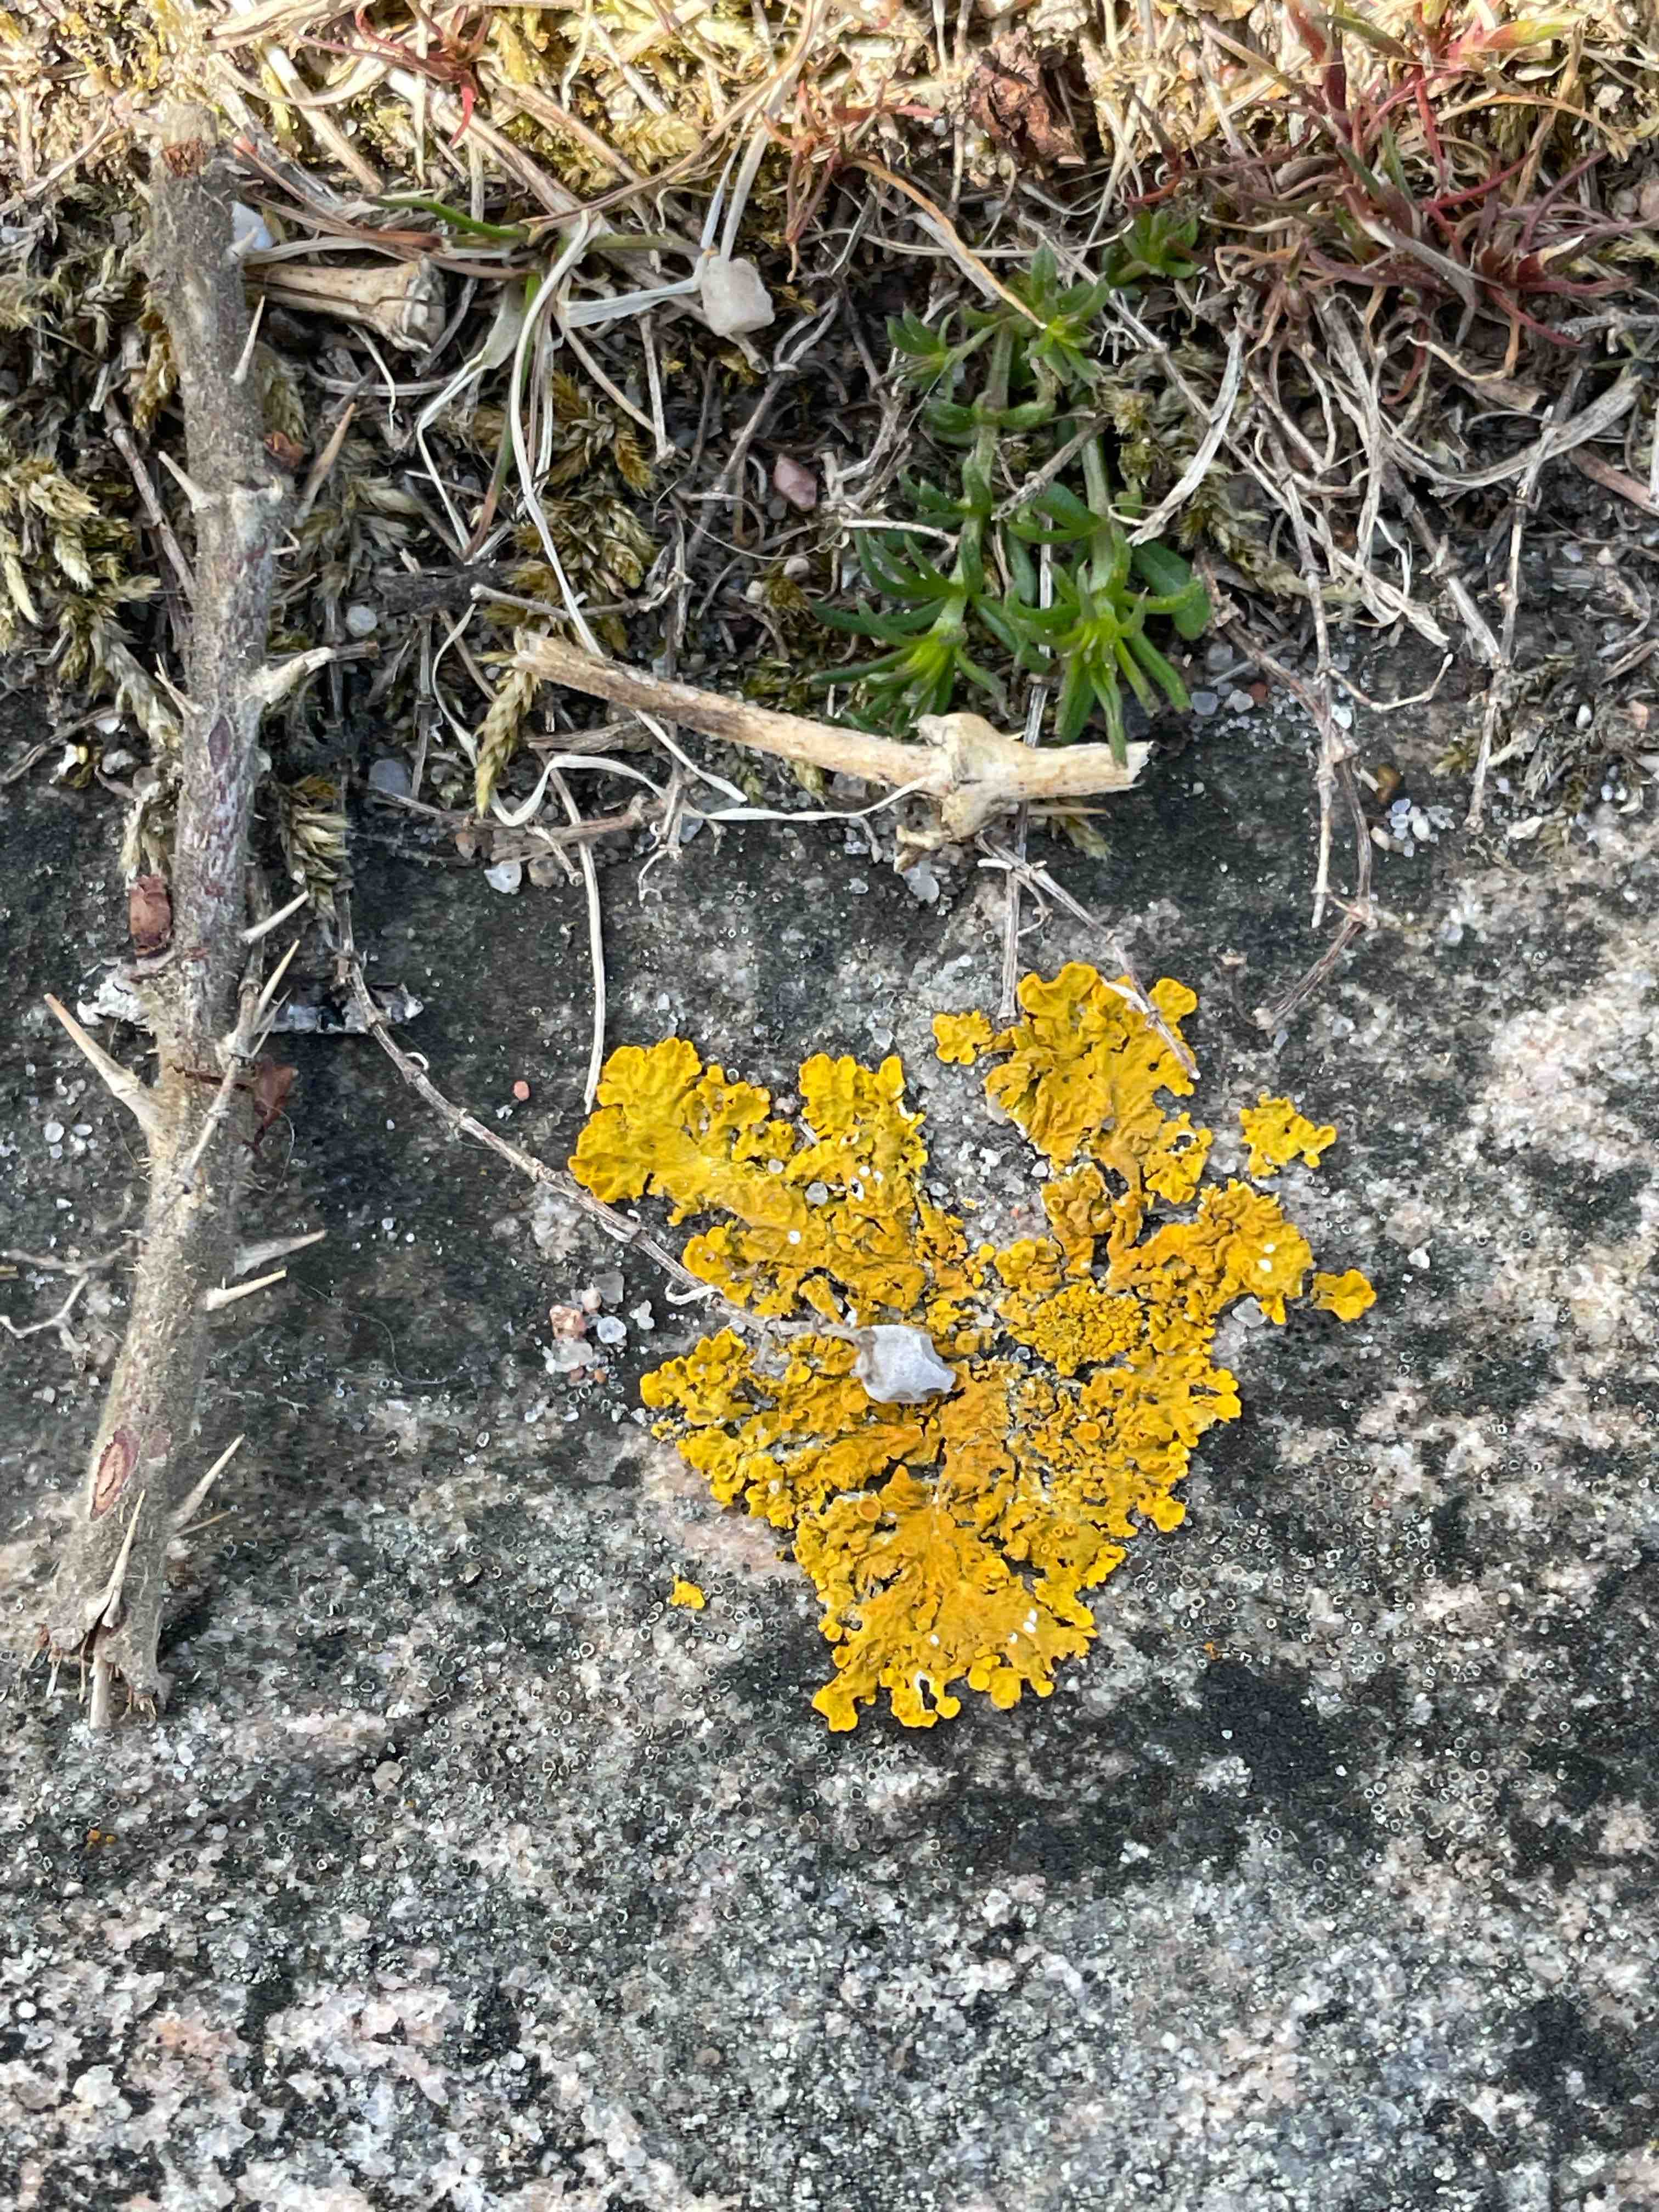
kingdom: Fungi
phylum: Ascomycota
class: Lecanoromycetes
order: Teloschistales
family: Teloschistaceae
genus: Xanthoria
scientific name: Xanthoria parietina
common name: almindelig væggelav
